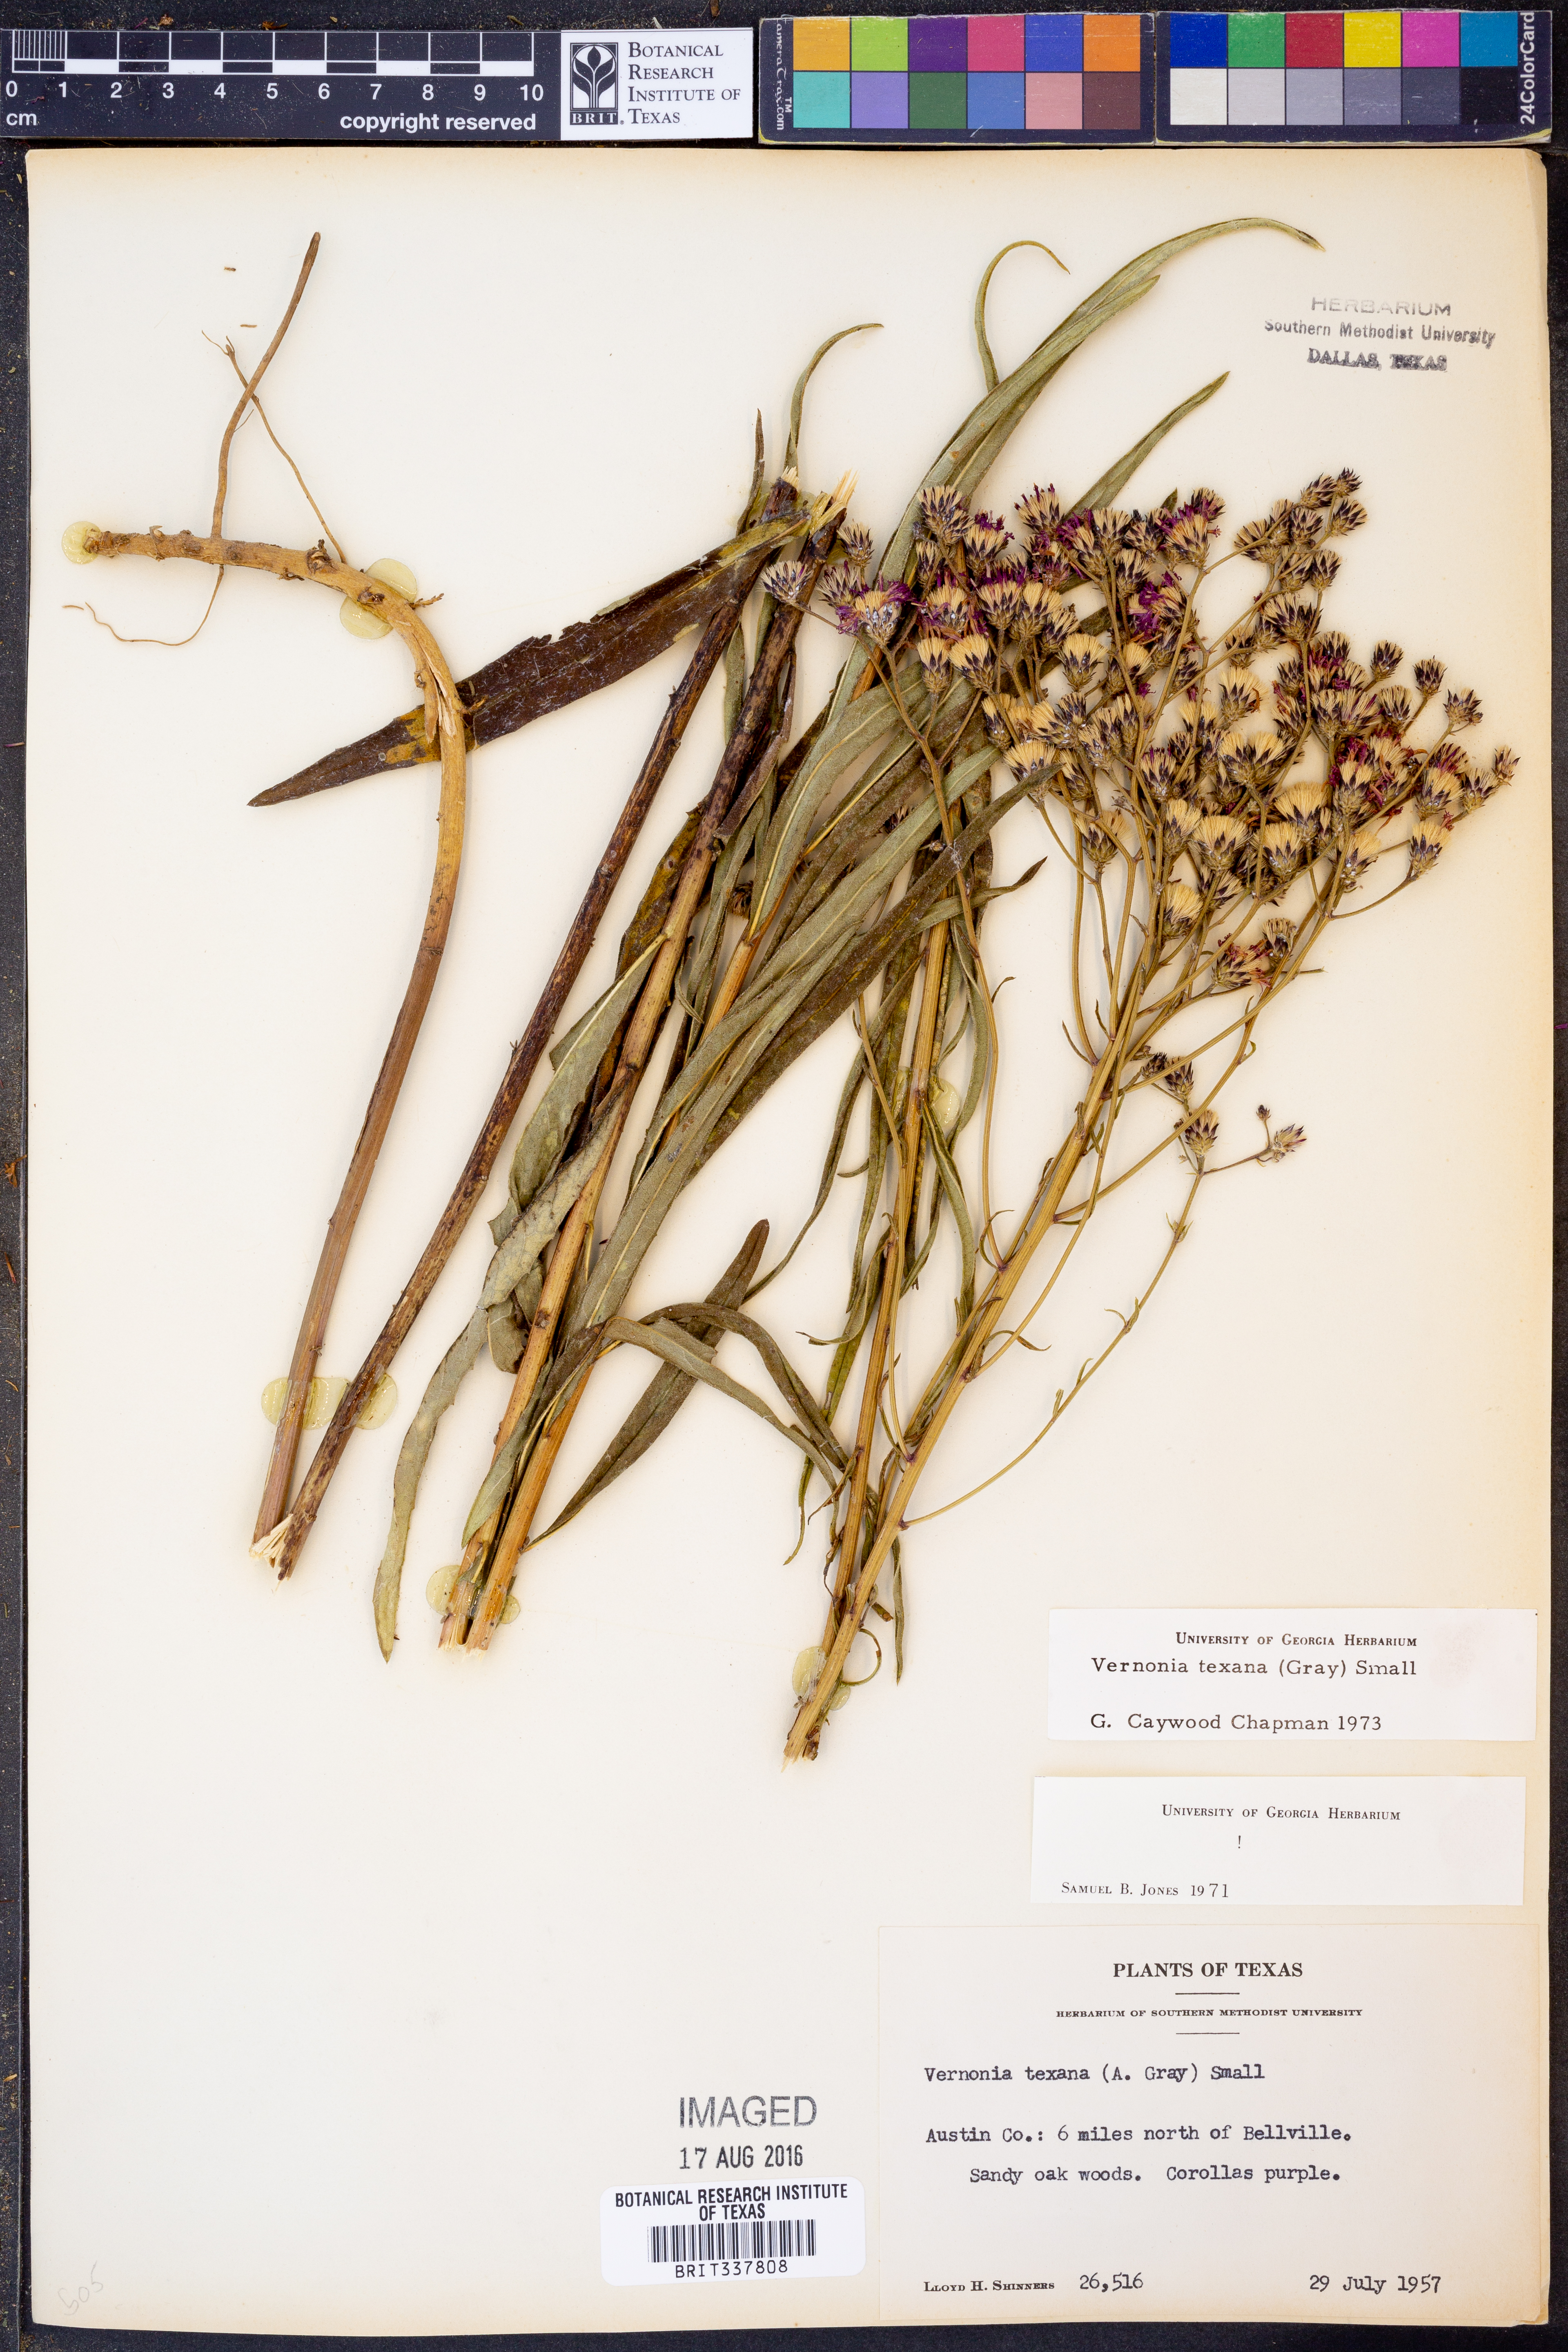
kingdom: Plantae
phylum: Tracheophyta
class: Magnoliopsida
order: Asterales
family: Asteraceae
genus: Vernonia
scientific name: Vernonia texana
